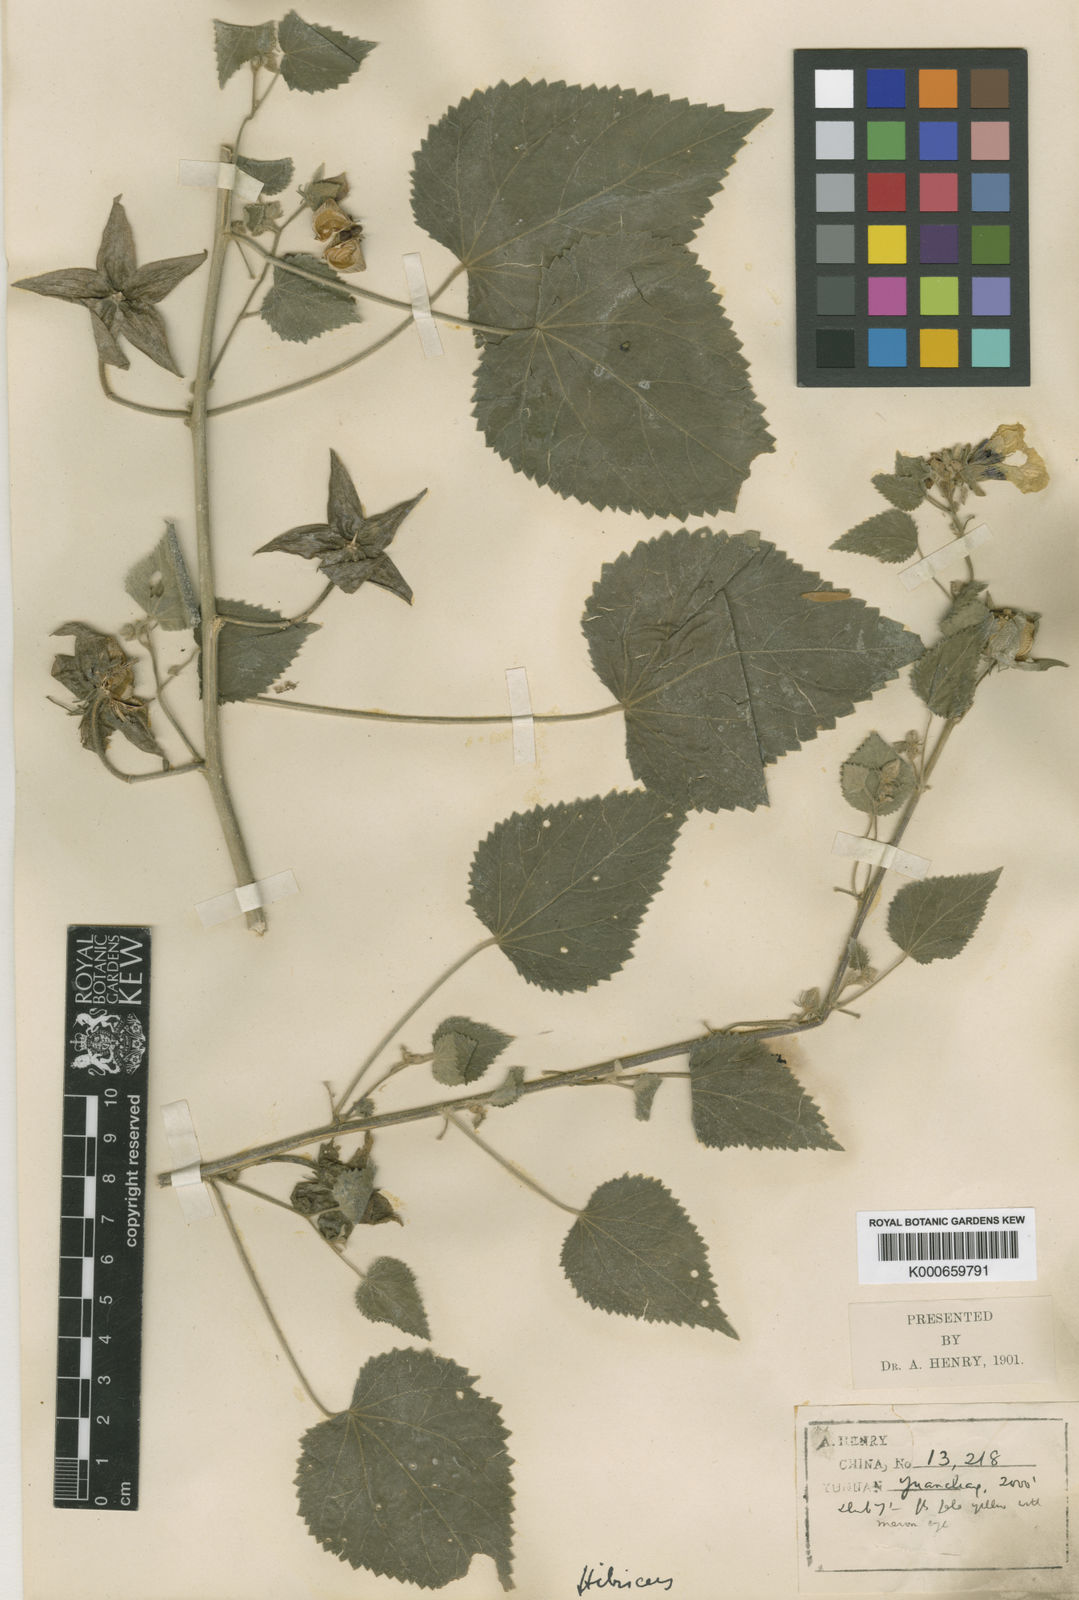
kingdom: Plantae
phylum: Tracheophyta
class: Magnoliopsida
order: Malvales
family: Malvaceae
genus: Hibiscus
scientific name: Hibiscus yunnanensis
